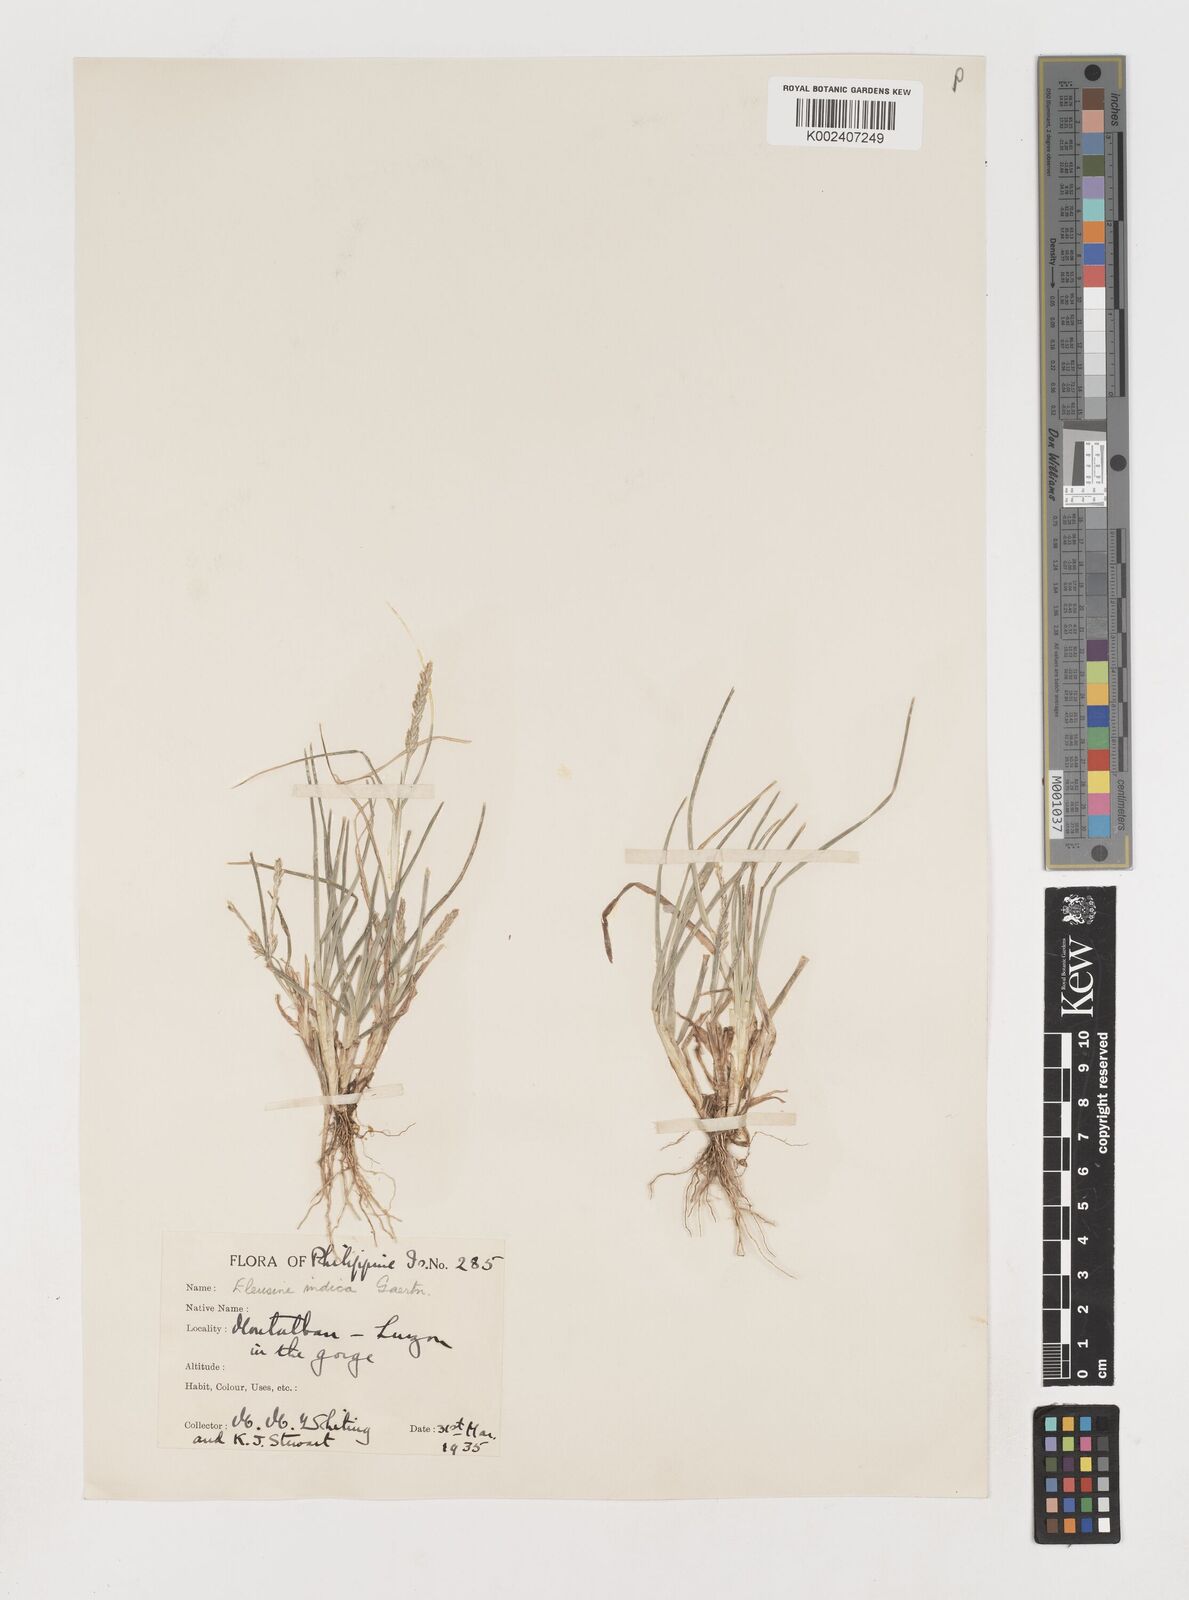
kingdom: Plantae
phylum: Tracheophyta
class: Liliopsida
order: Poales
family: Poaceae
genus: Eleusine
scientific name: Eleusine indica
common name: Yard-grass
